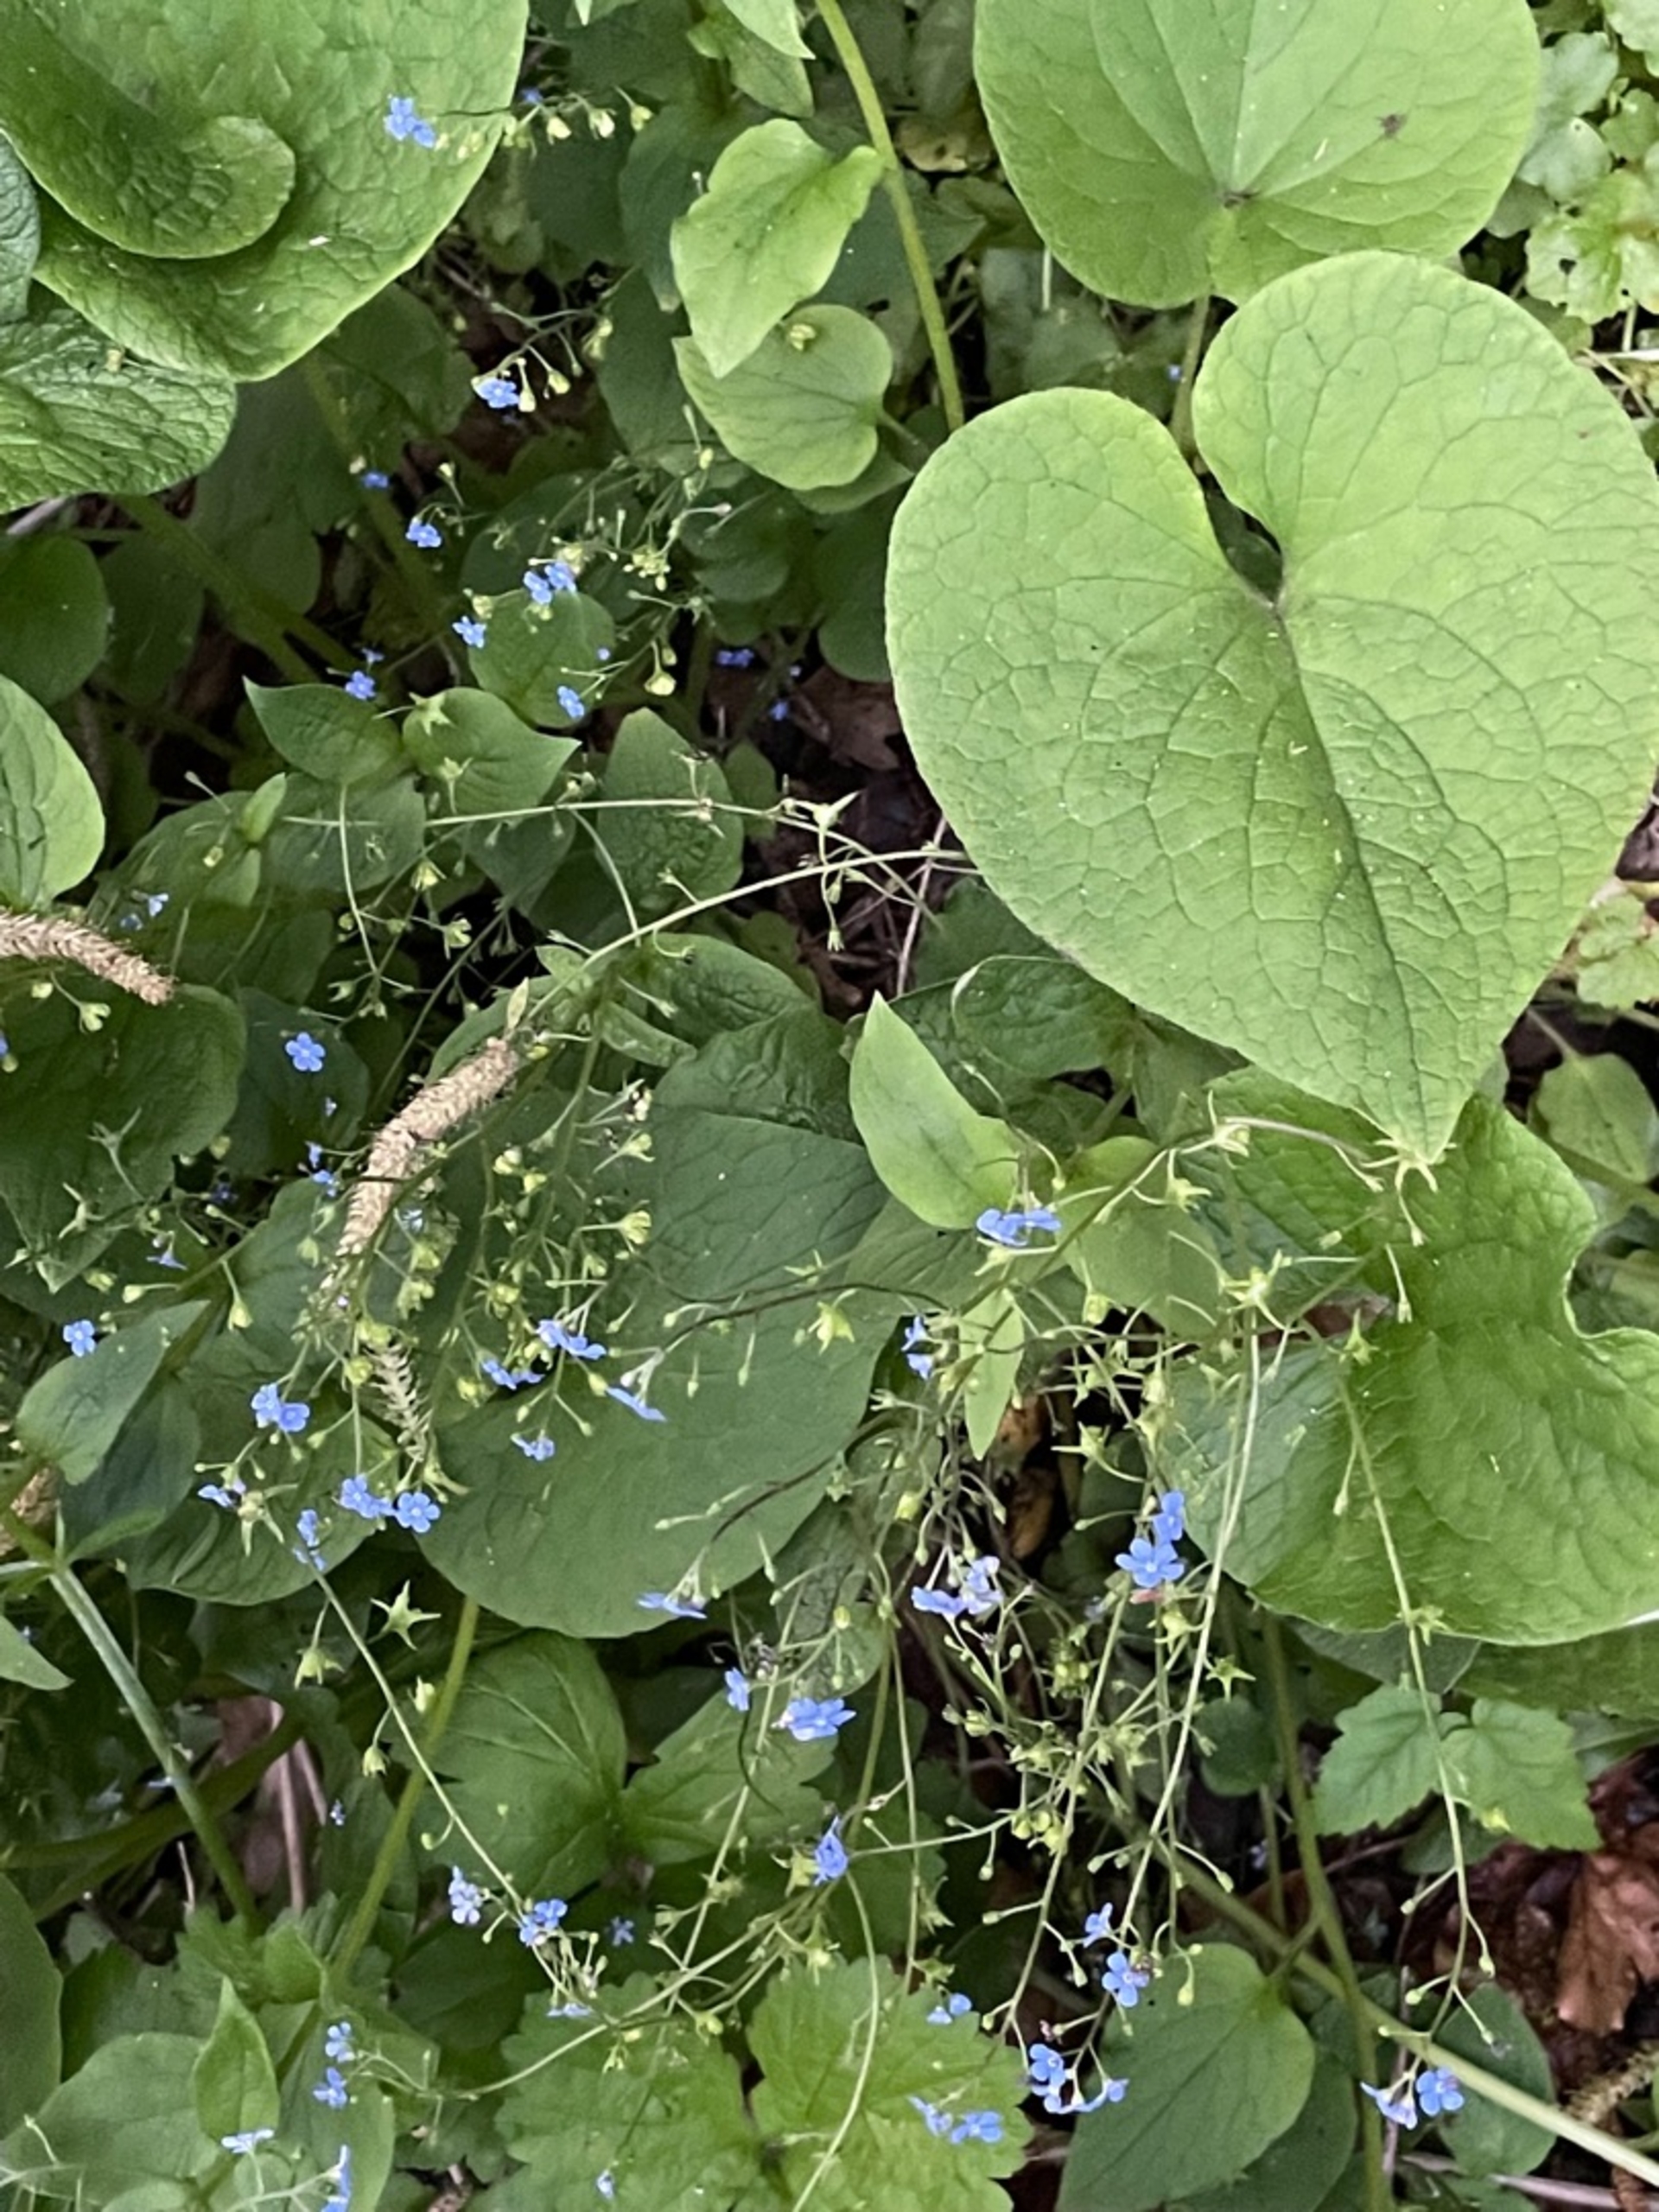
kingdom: Plantae
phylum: Tracheophyta
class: Magnoliopsida
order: Boraginales
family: Boraginaceae
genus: Brunnera
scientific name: Brunnera macrophylla
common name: Kærmindesøster
